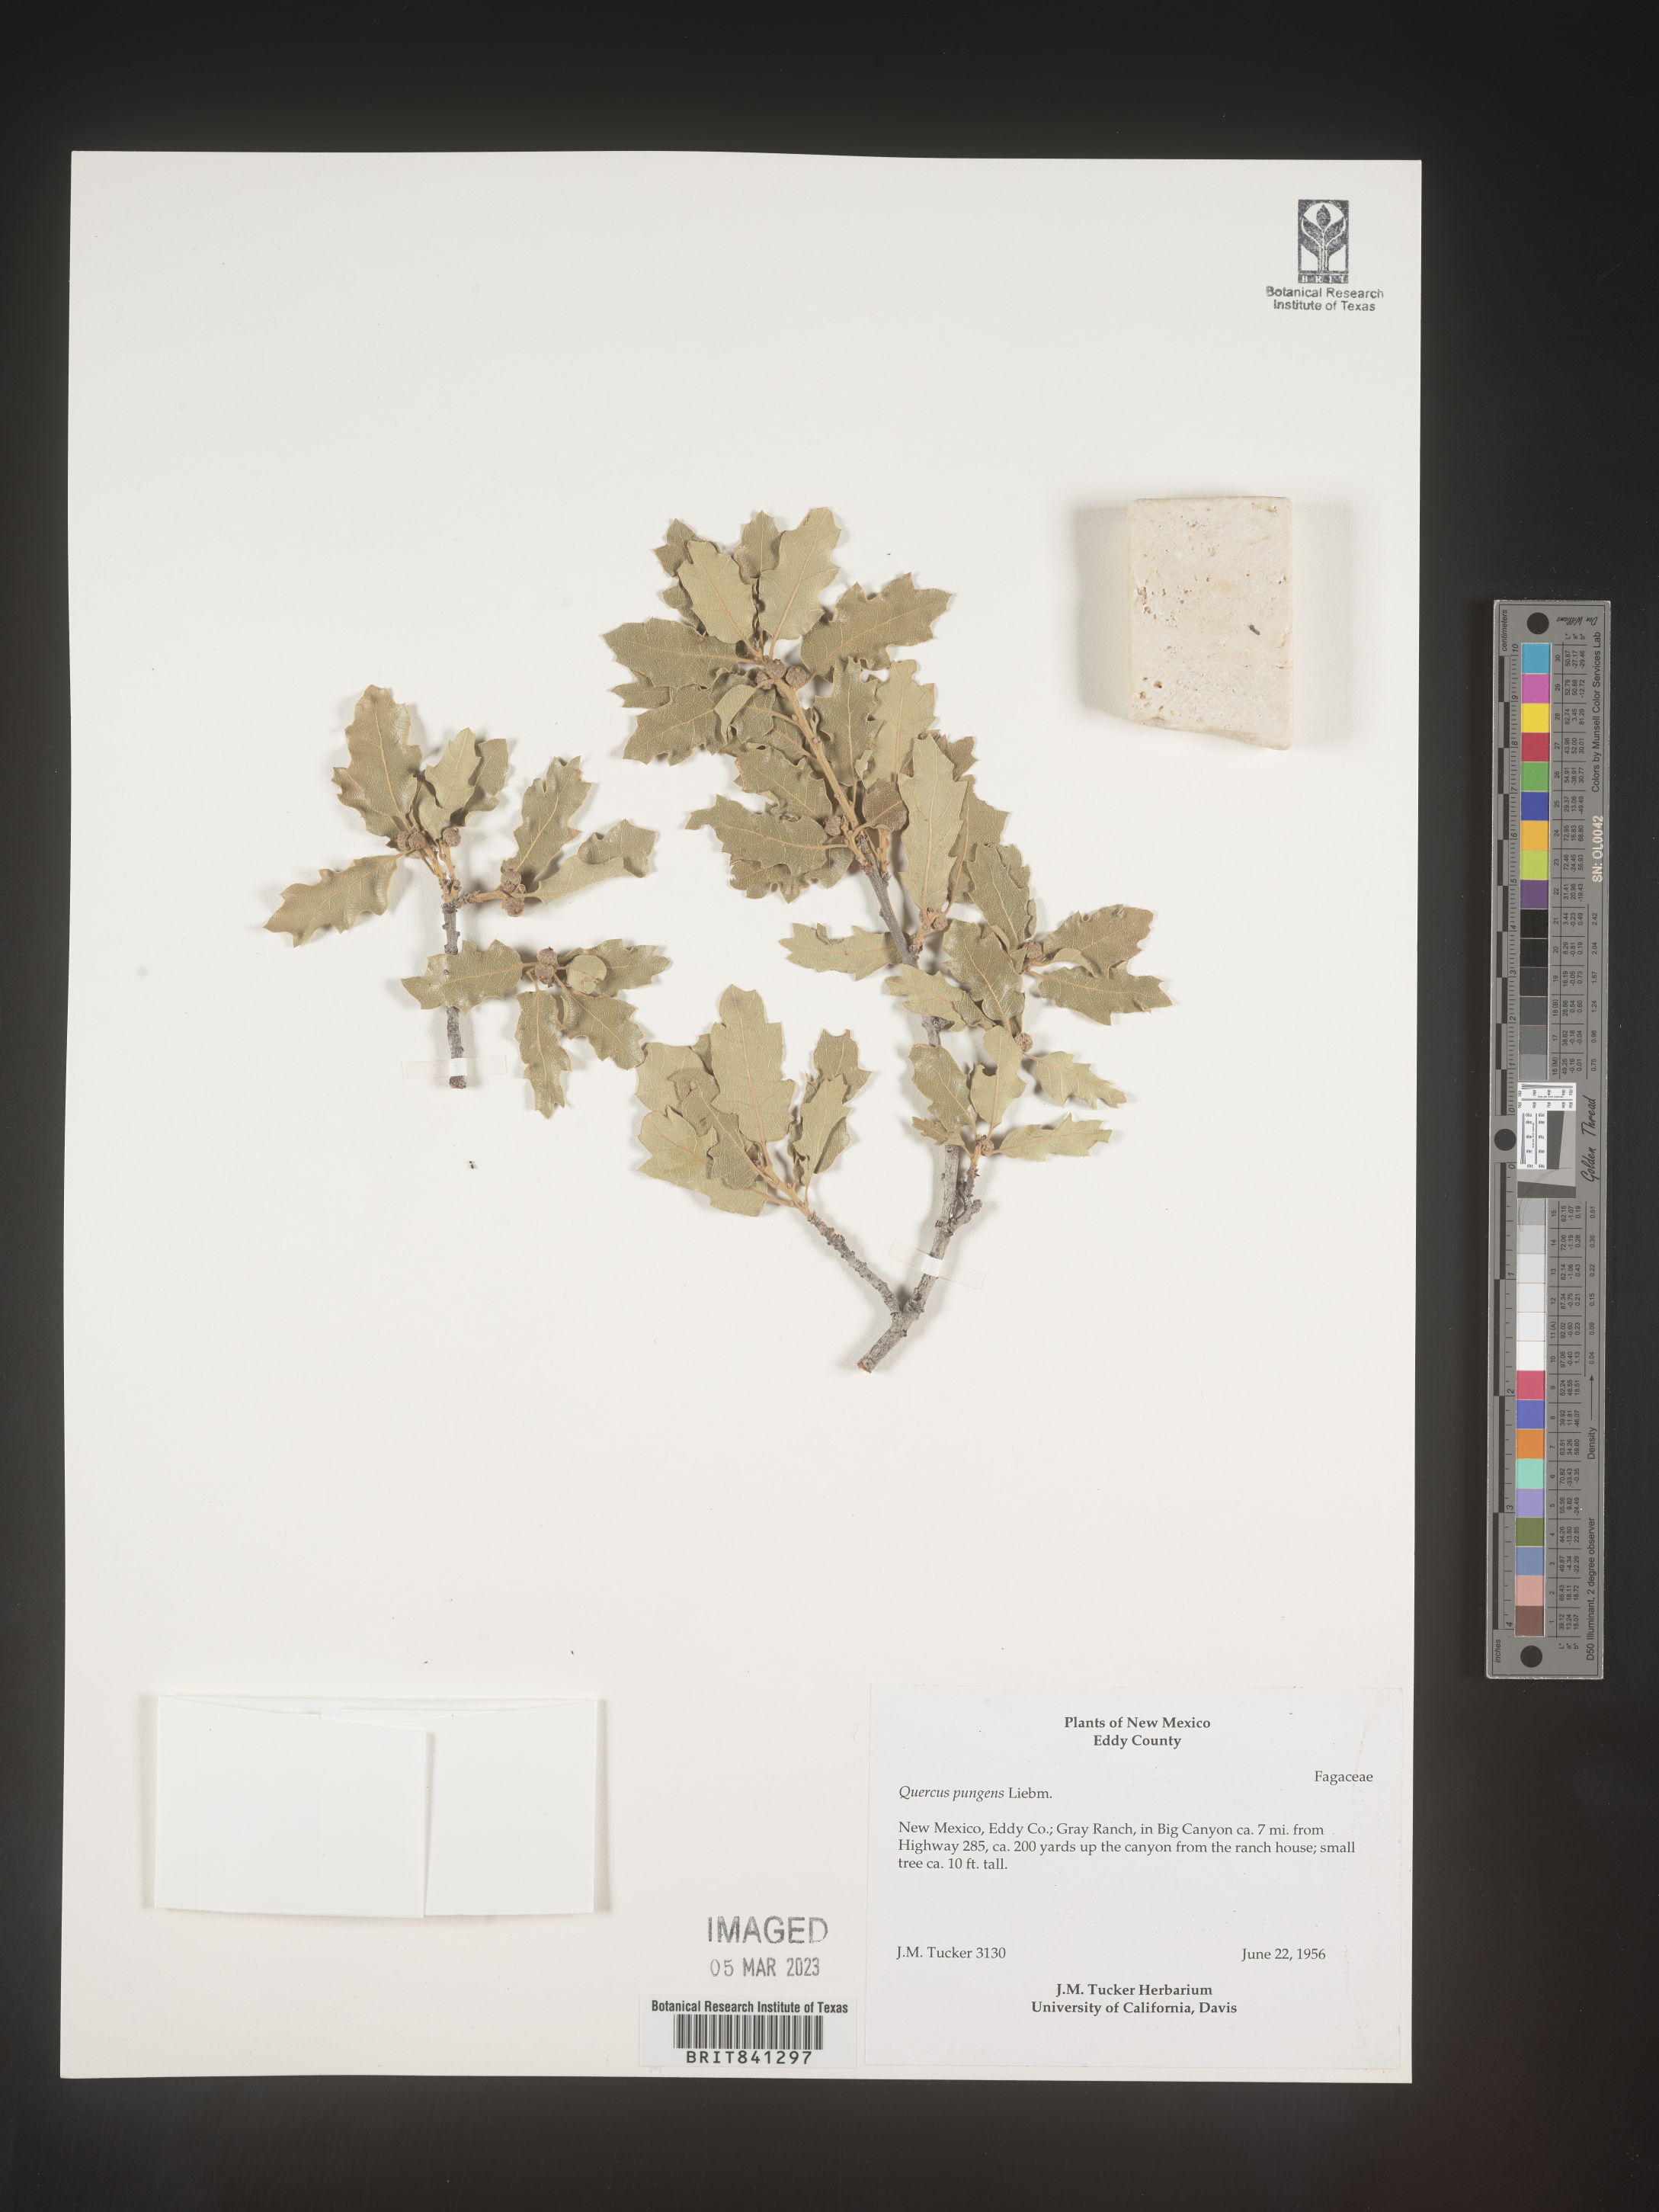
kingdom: Plantae
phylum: Tracheophyta
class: Magnoliopsida
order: Fagales
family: Fagaceae
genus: Quercus
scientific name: Quercus pungens
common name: Pungent oak
